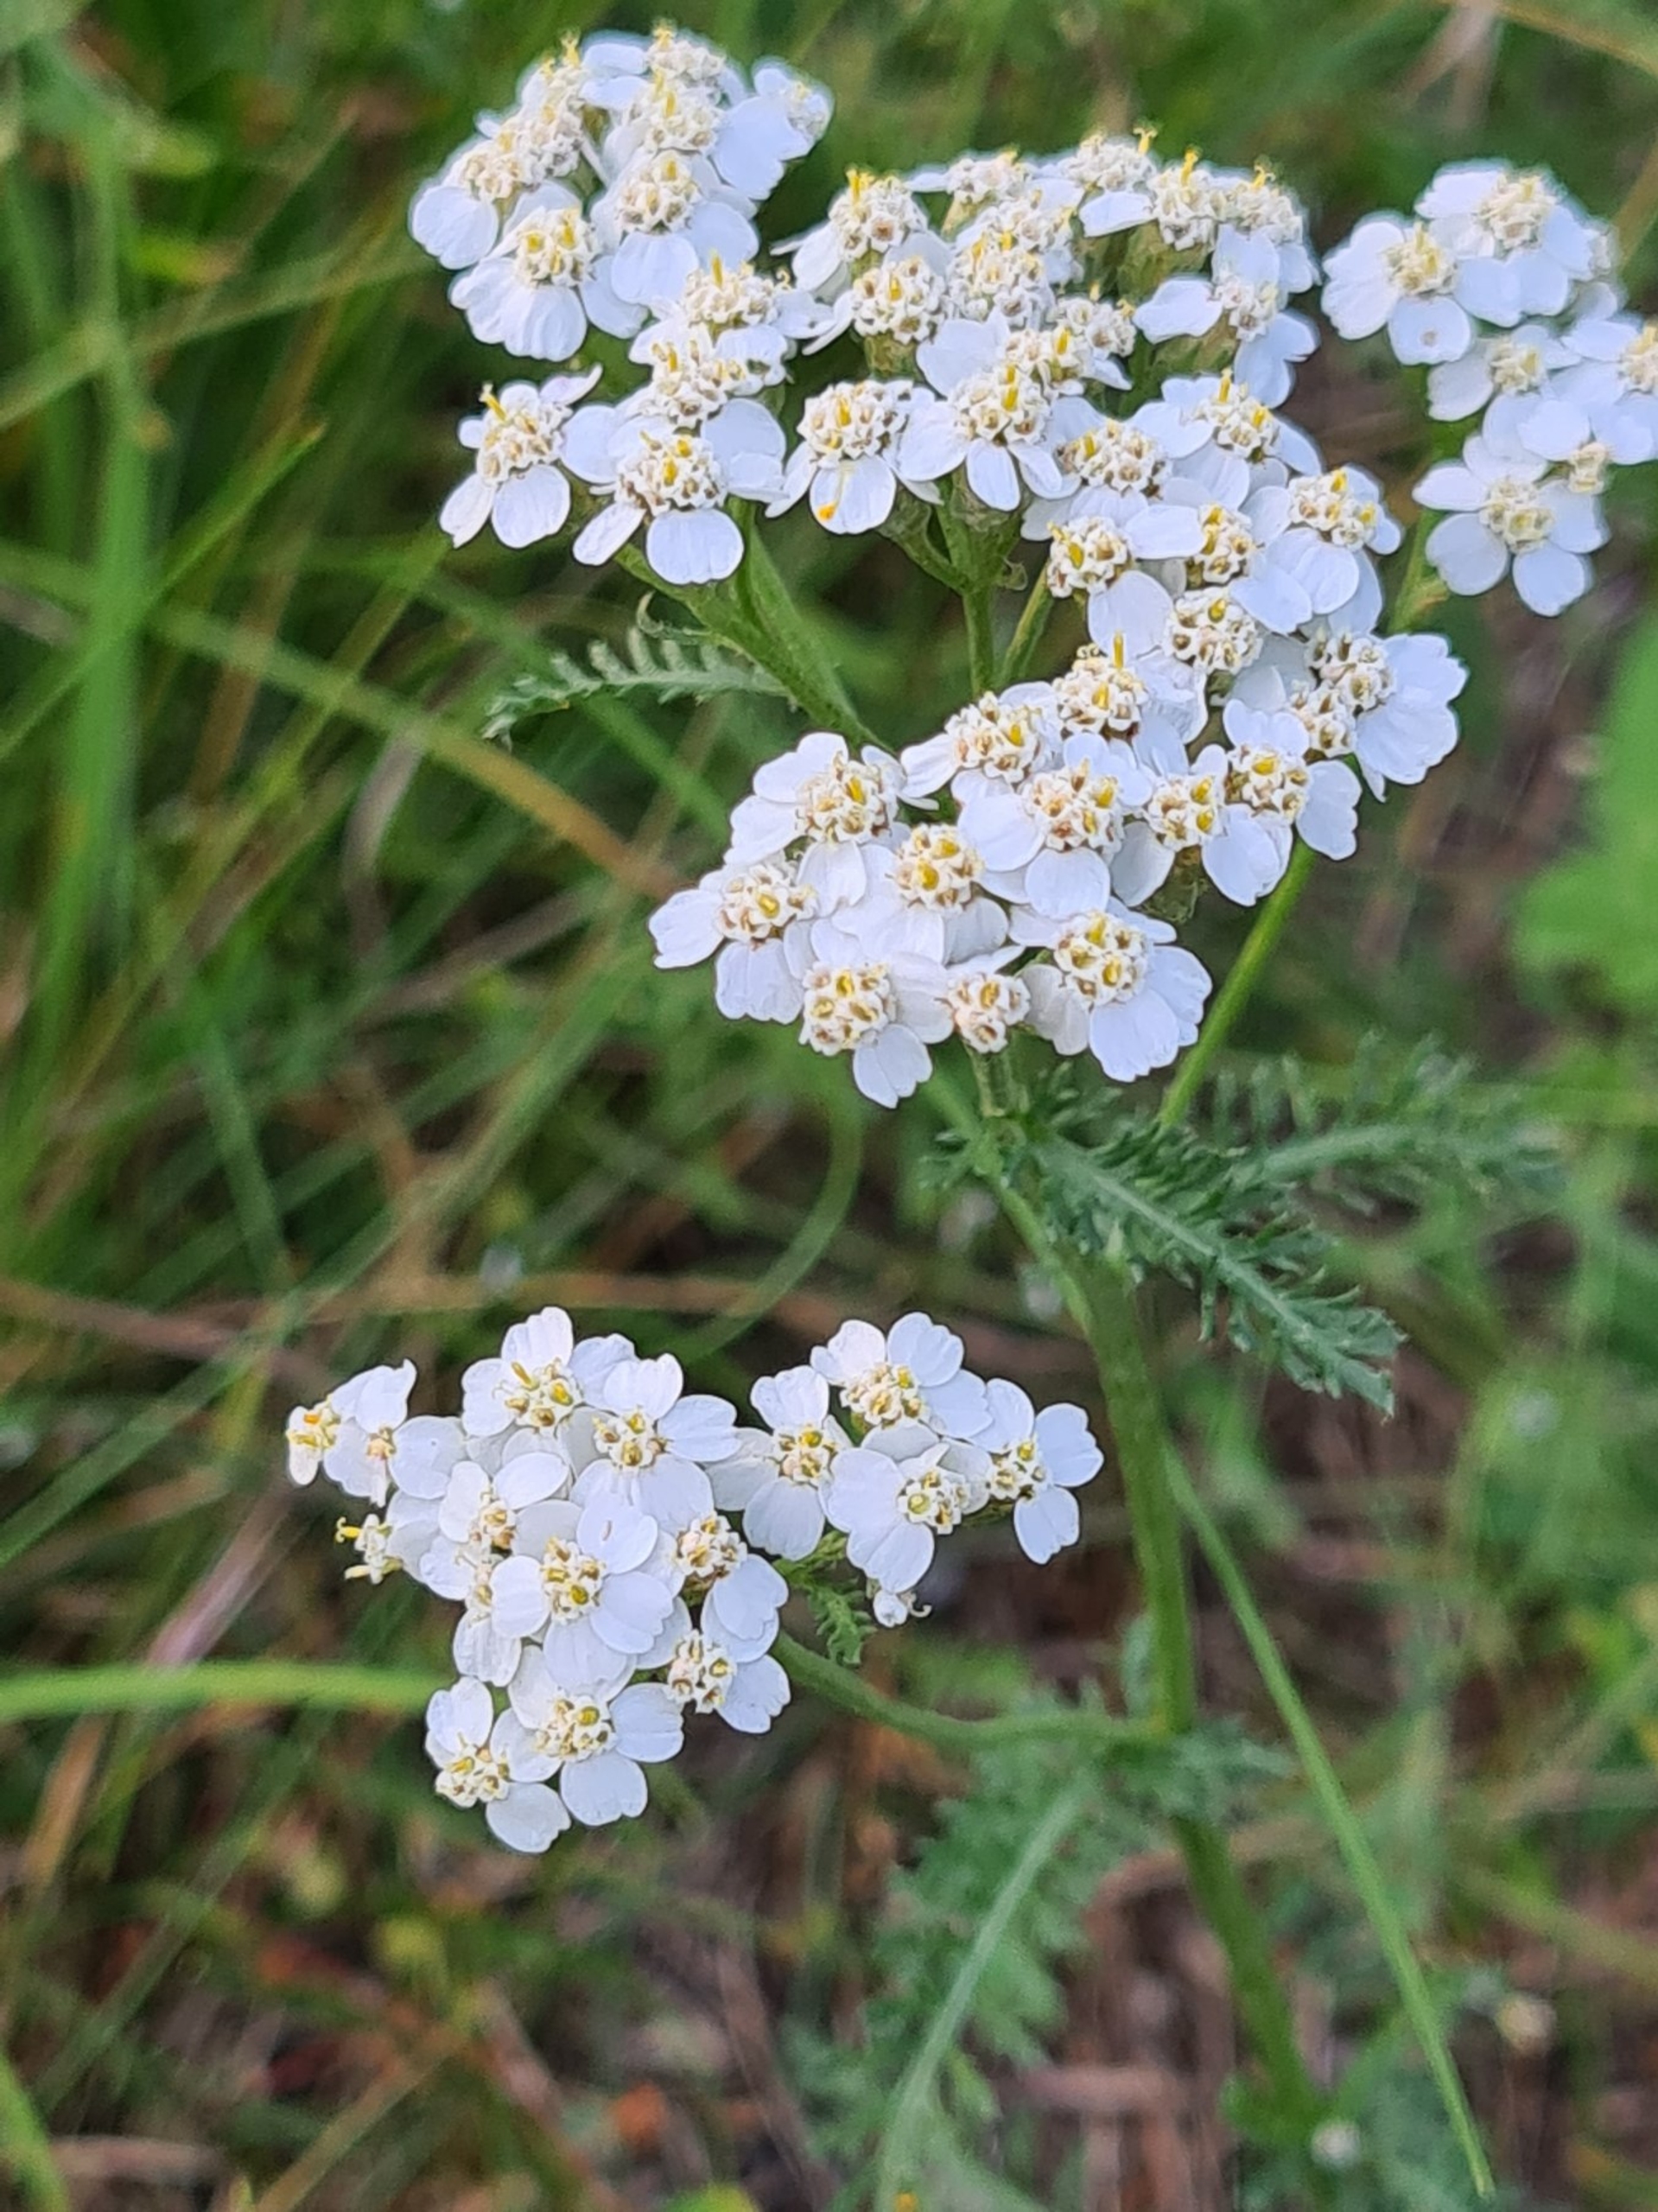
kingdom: Plantae
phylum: Tracheophyta
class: Magnoliopsida
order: Asterales
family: Asteraceae
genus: Achillea
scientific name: Achillea millefolium
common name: Almindelig røllike
